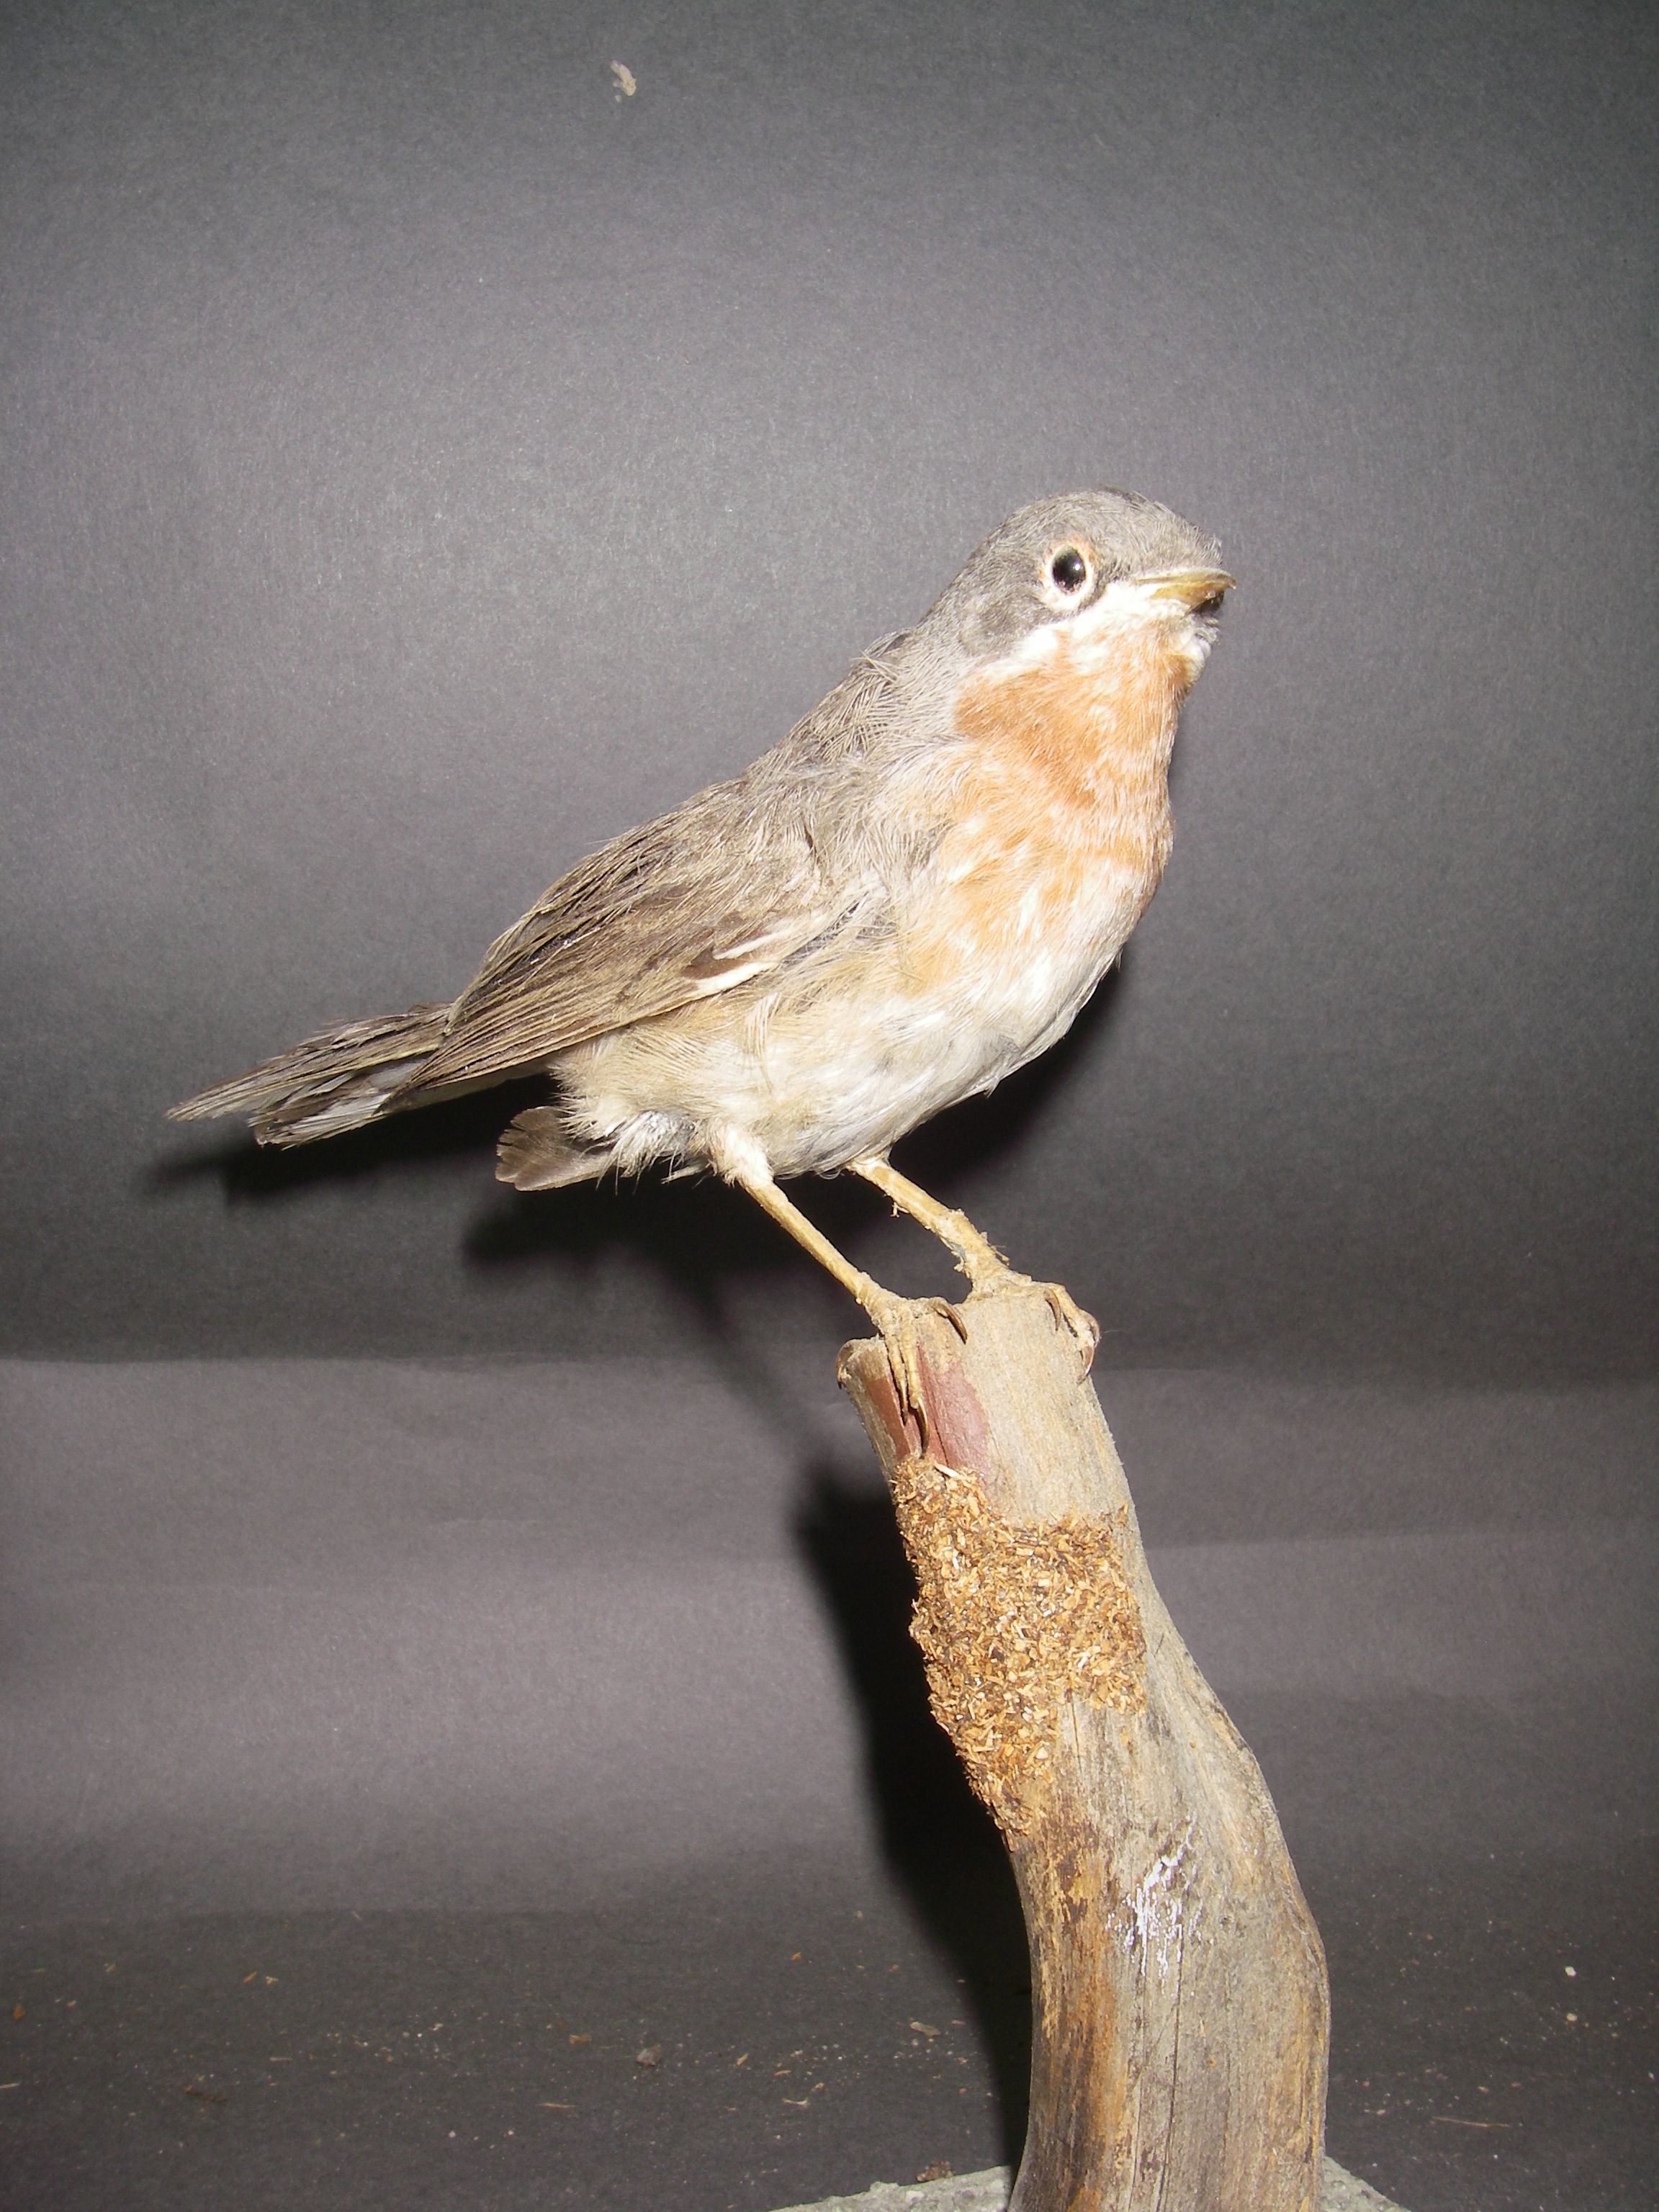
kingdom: Animalia
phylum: Chordata
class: Aves
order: Passeriformes
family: Sylviidae
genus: Sylvia
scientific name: Sylvia cantillans
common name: Subalpine warbler
